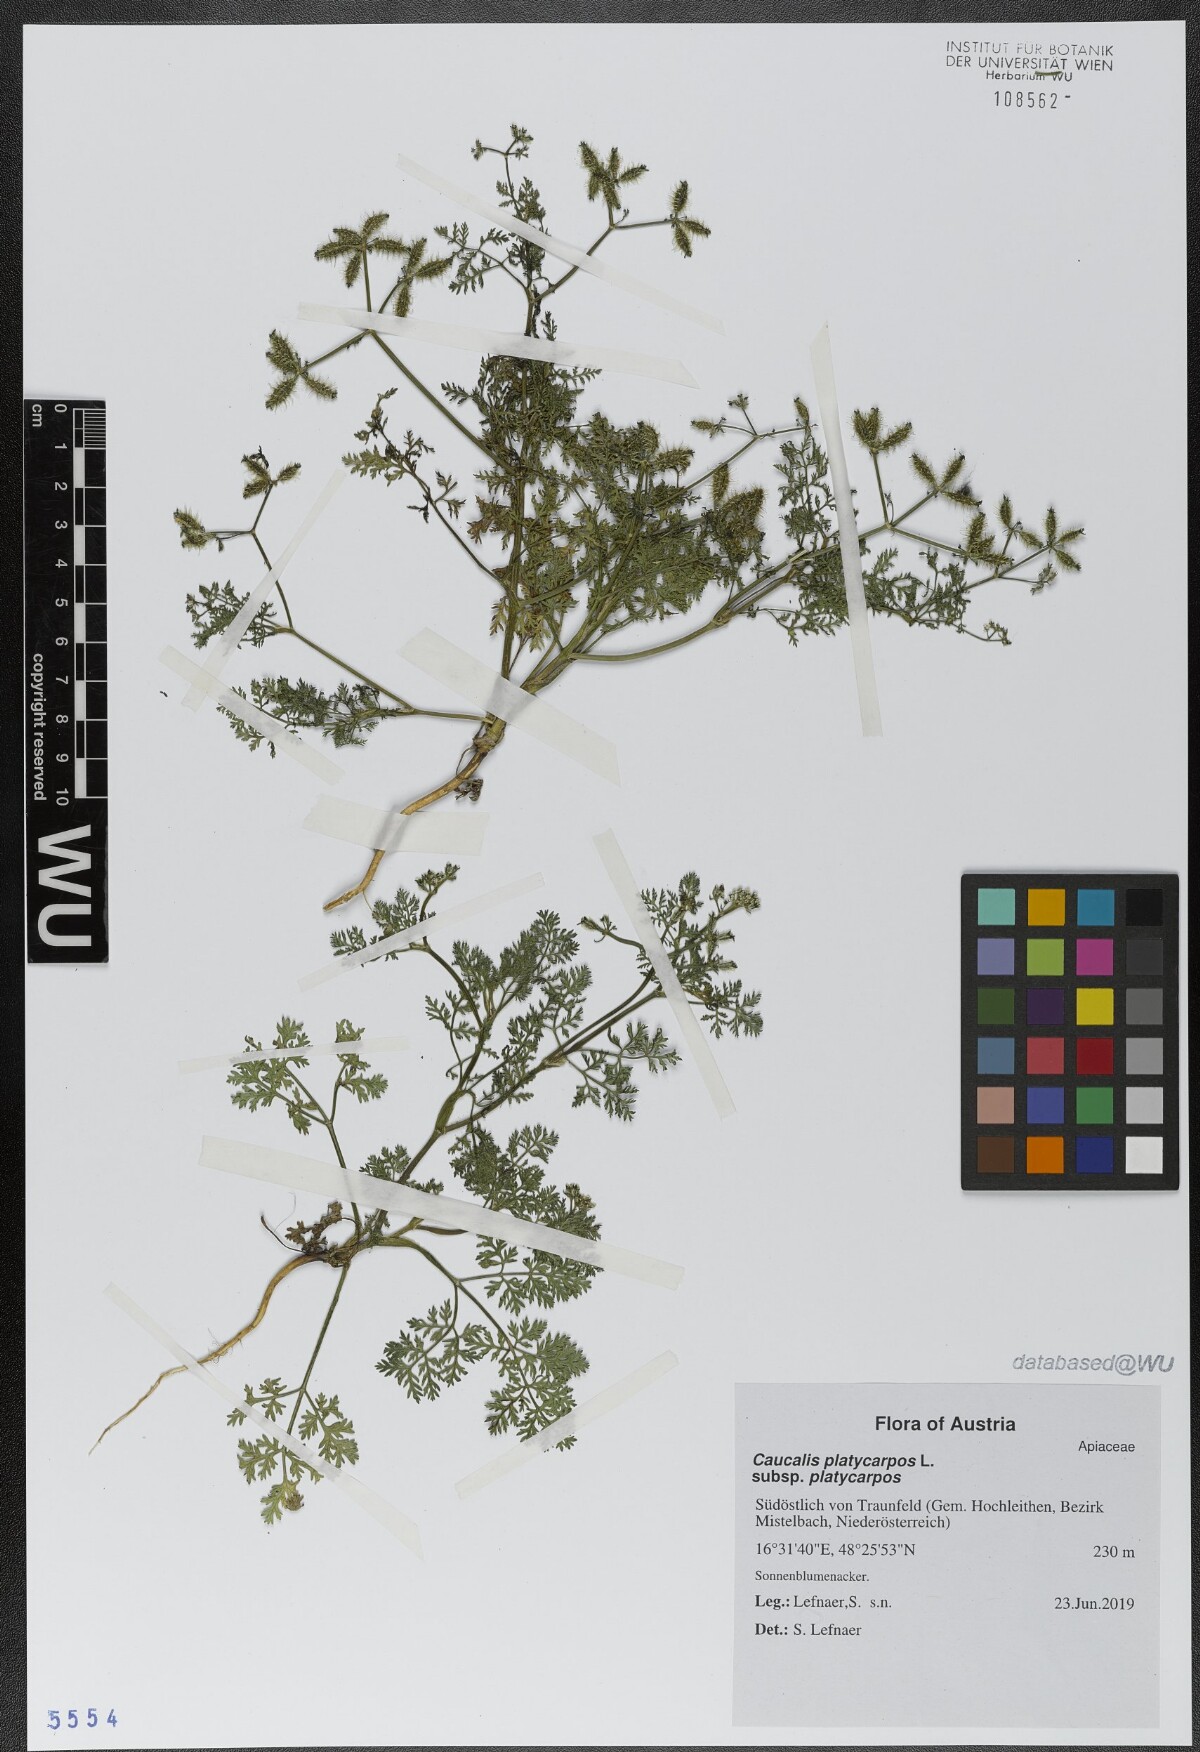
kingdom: Plantae
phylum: Tracheophyta
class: Magnoliopsida
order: Apiales
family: Apiaceae
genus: Caucalis
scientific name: Caucalis platycarpos
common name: Small bur-parsley
